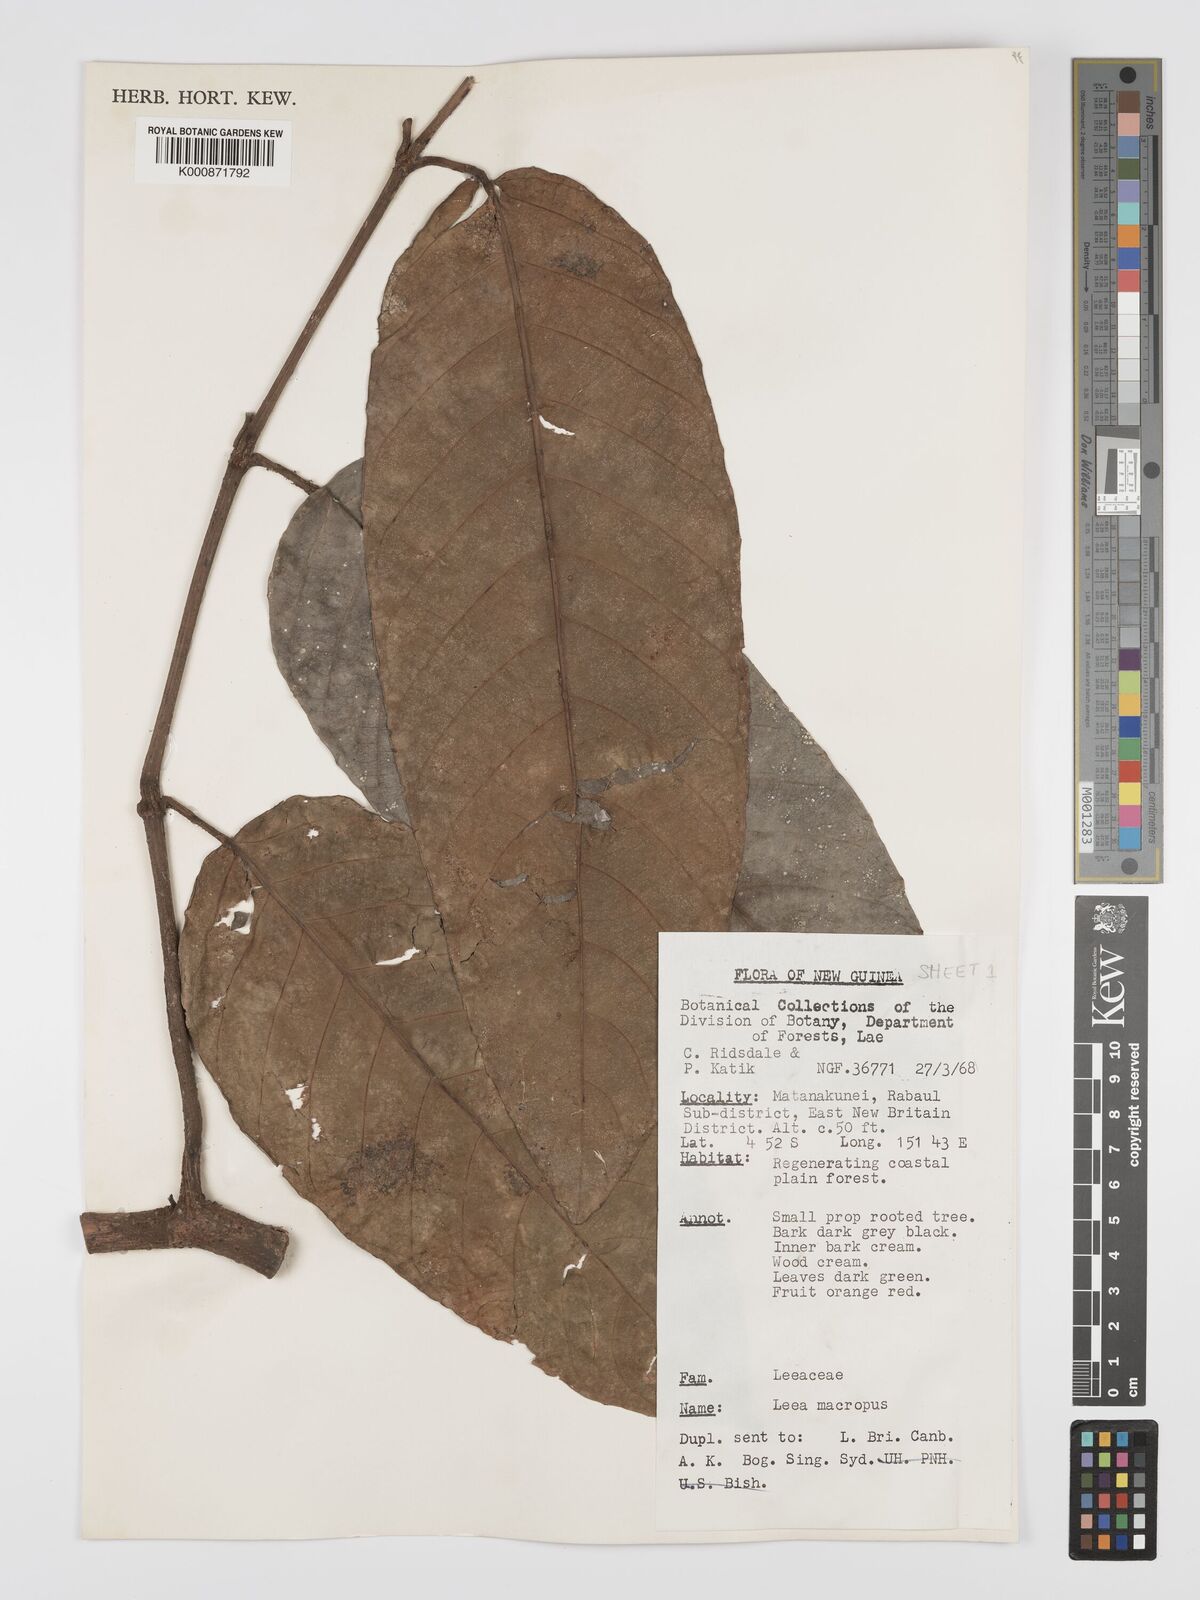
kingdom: Plantae
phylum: Tracheophyta
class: Magnoliopsida
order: Vitales
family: Vitaceae
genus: Leea
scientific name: Leea macropus
